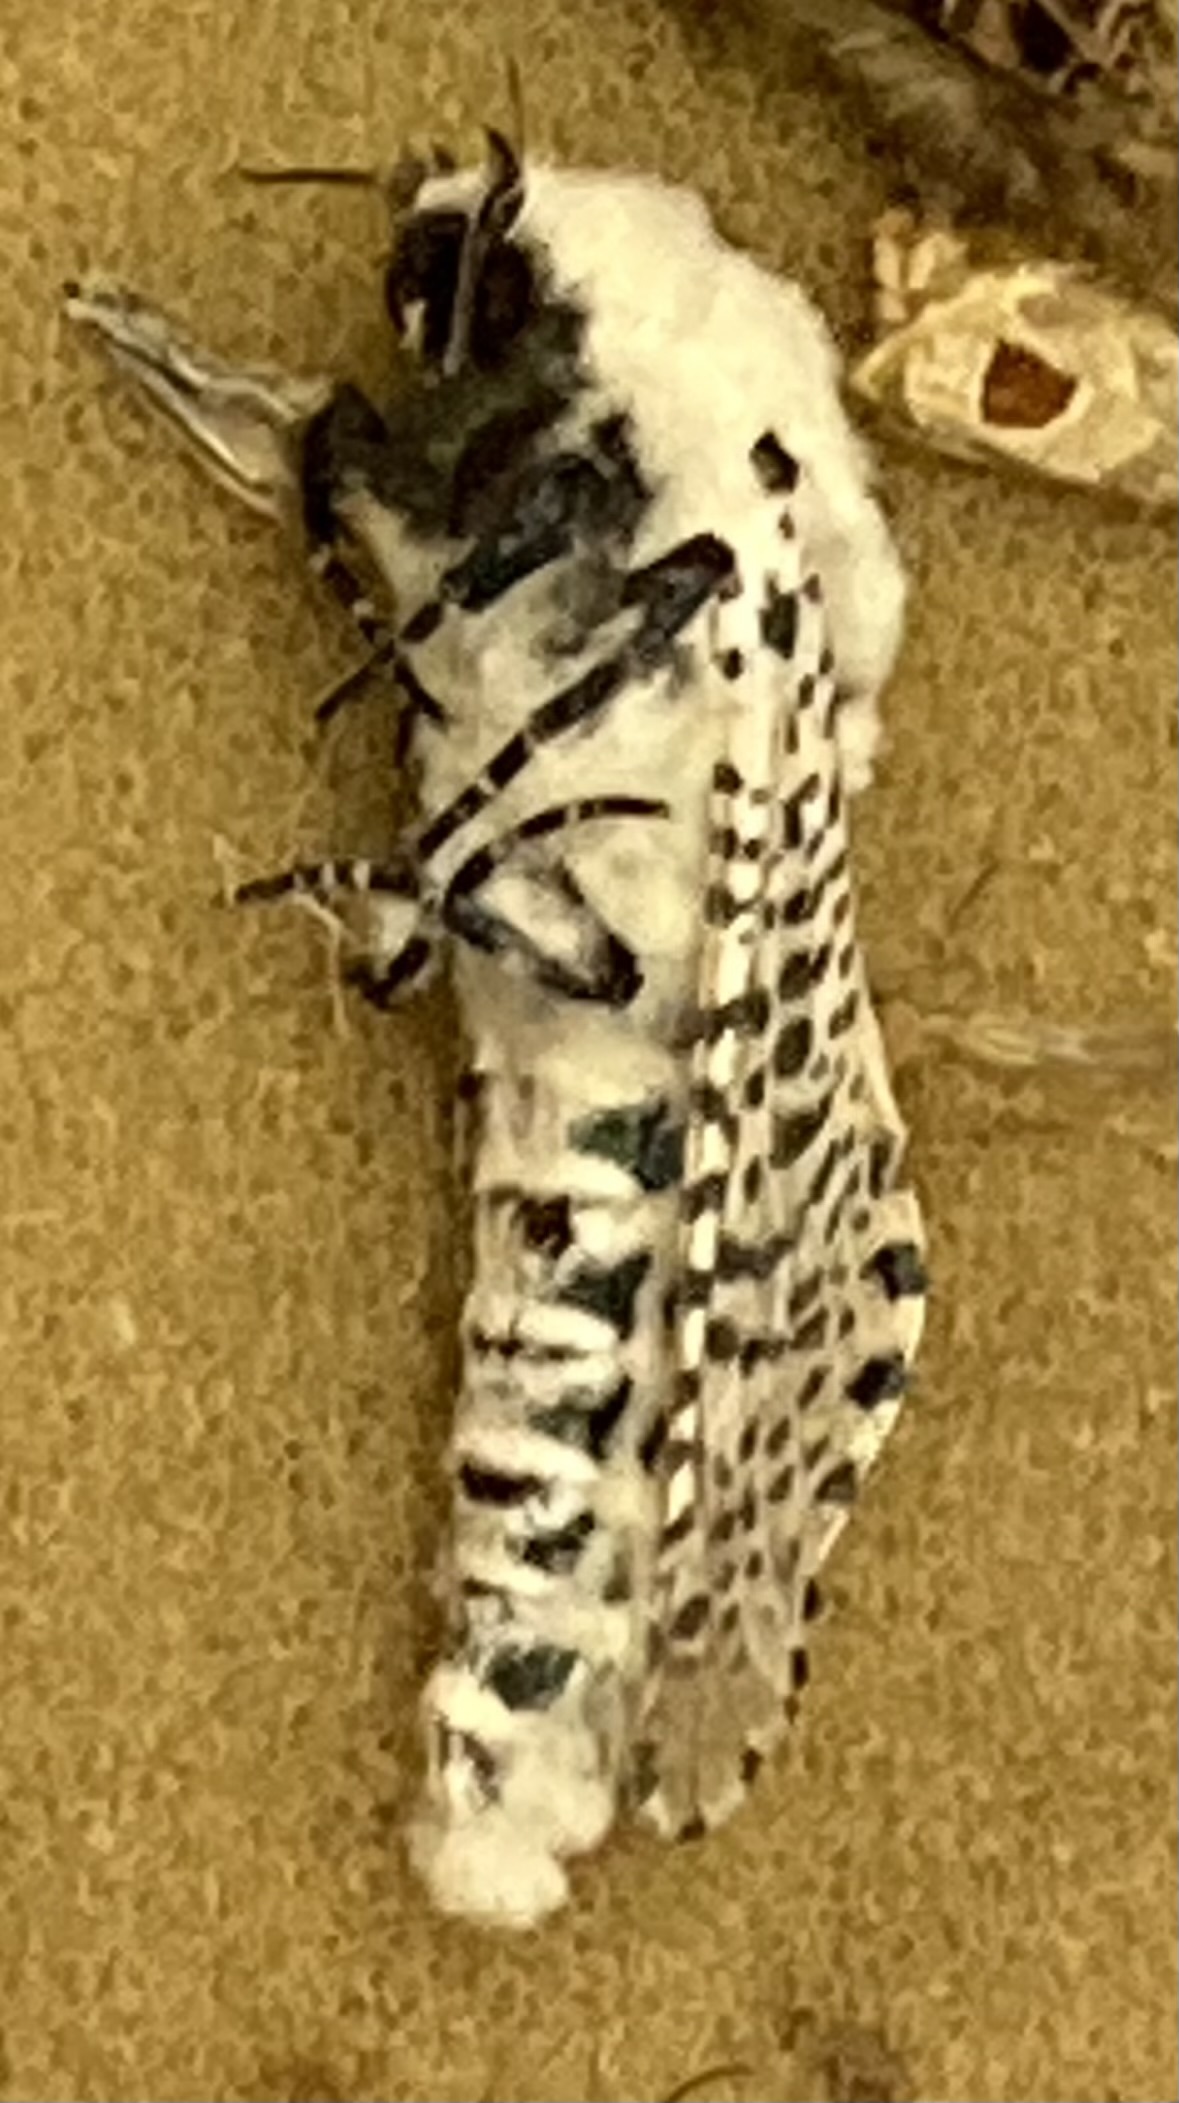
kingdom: Animalia
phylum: Arthropoda
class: Insecta
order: Lepidoptera
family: Cossidae
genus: Zeuzera
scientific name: Zeuzera pyrina
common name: Leopard moth
